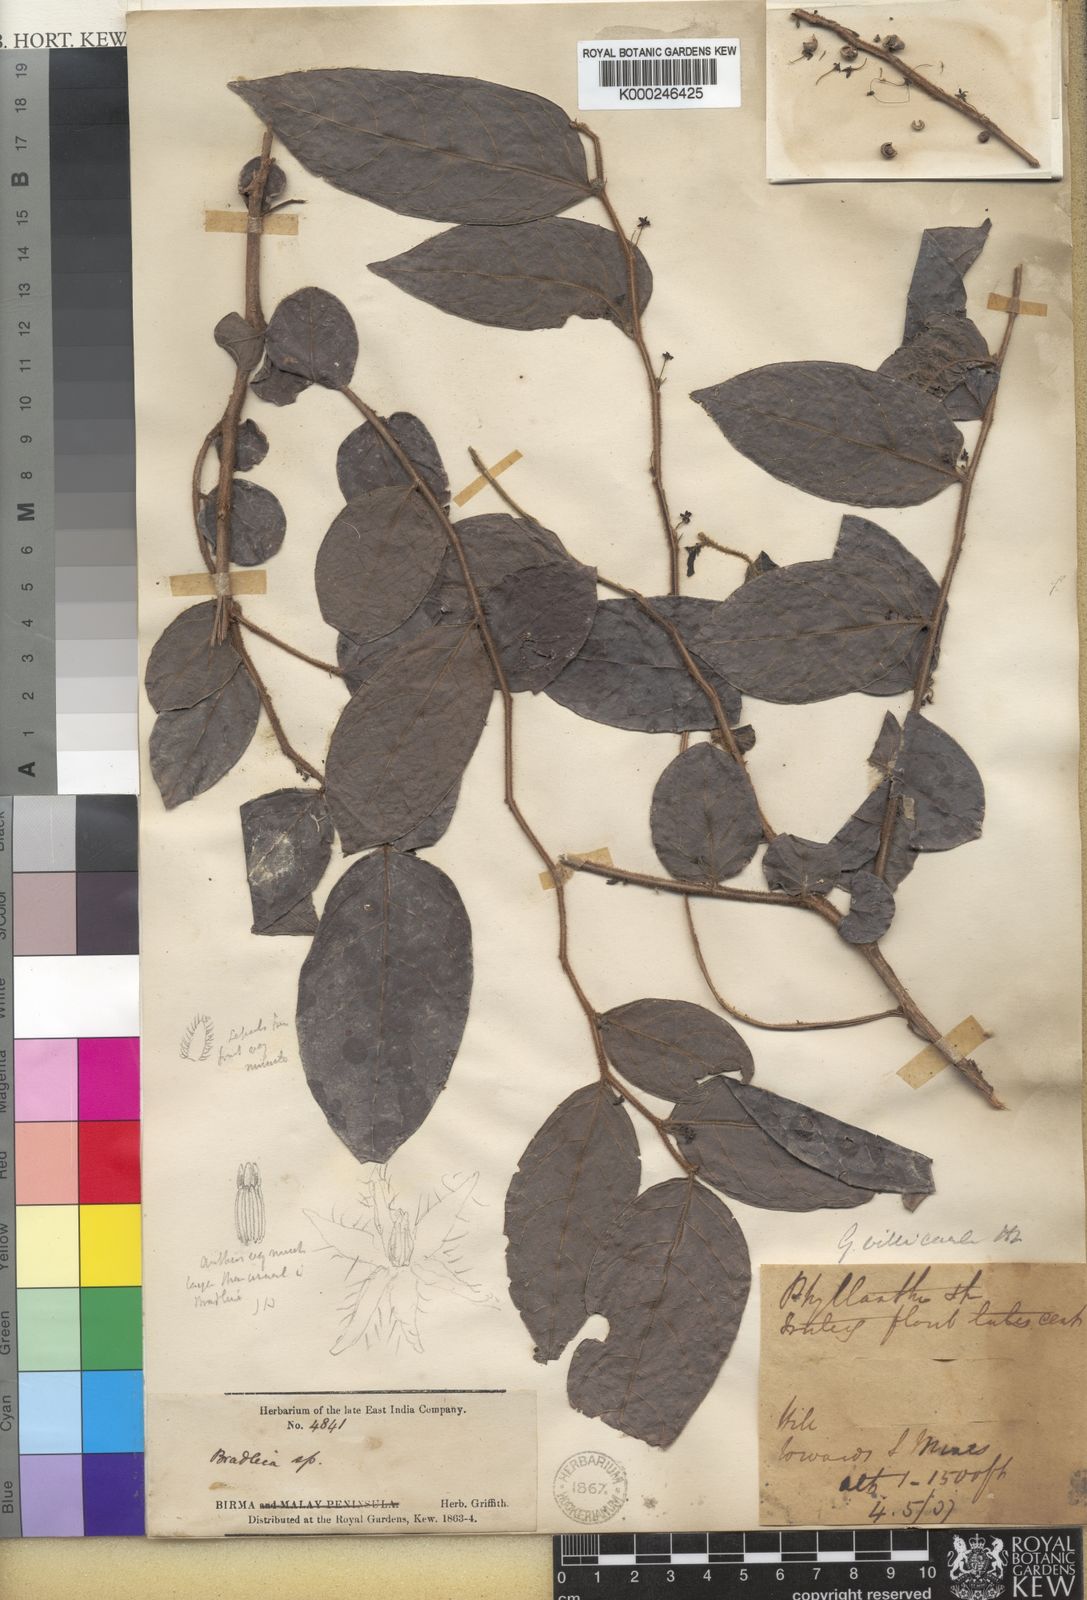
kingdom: Plantae
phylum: Tracheophyta
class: Magnoliopsida
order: Malpighiales
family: Phyllanthaceae
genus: Glochidion
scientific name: Glochidion eriocarpum
